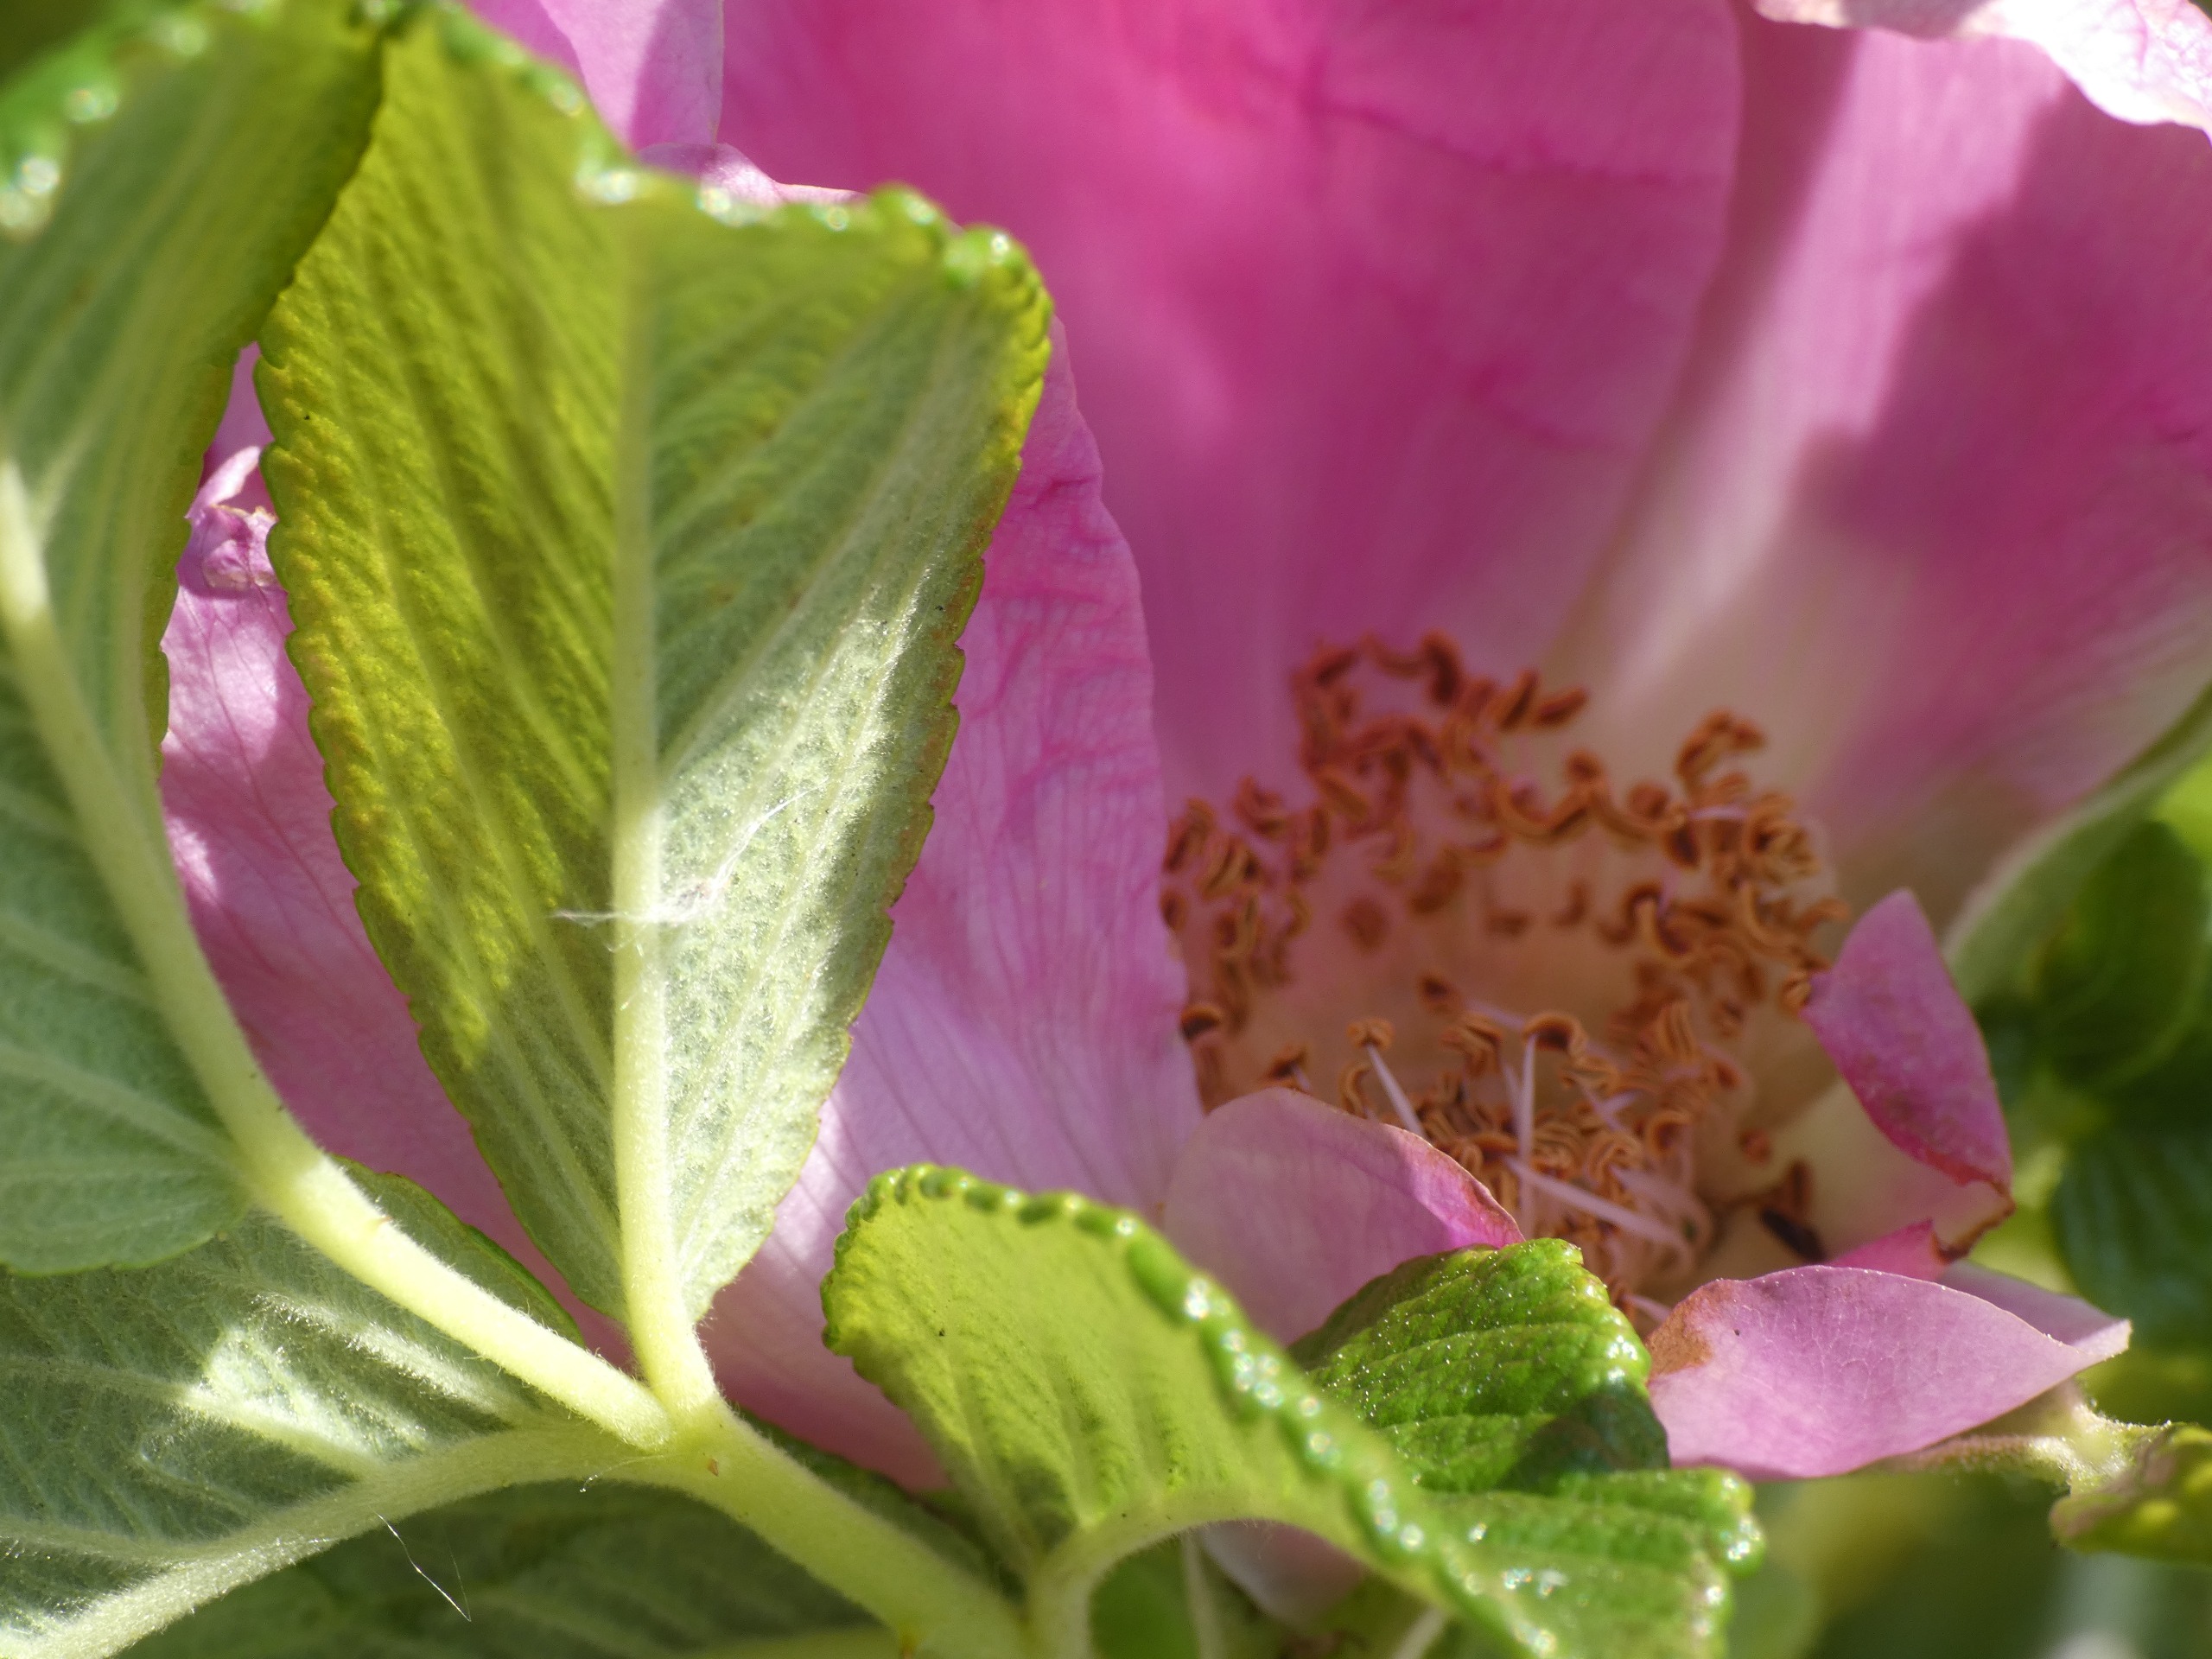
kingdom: Plantae
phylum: Tracheophyta
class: Magnoliopsida
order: Rosales
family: Rosaceae
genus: Rosa
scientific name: Rosa rugosa
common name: Rynket rose
